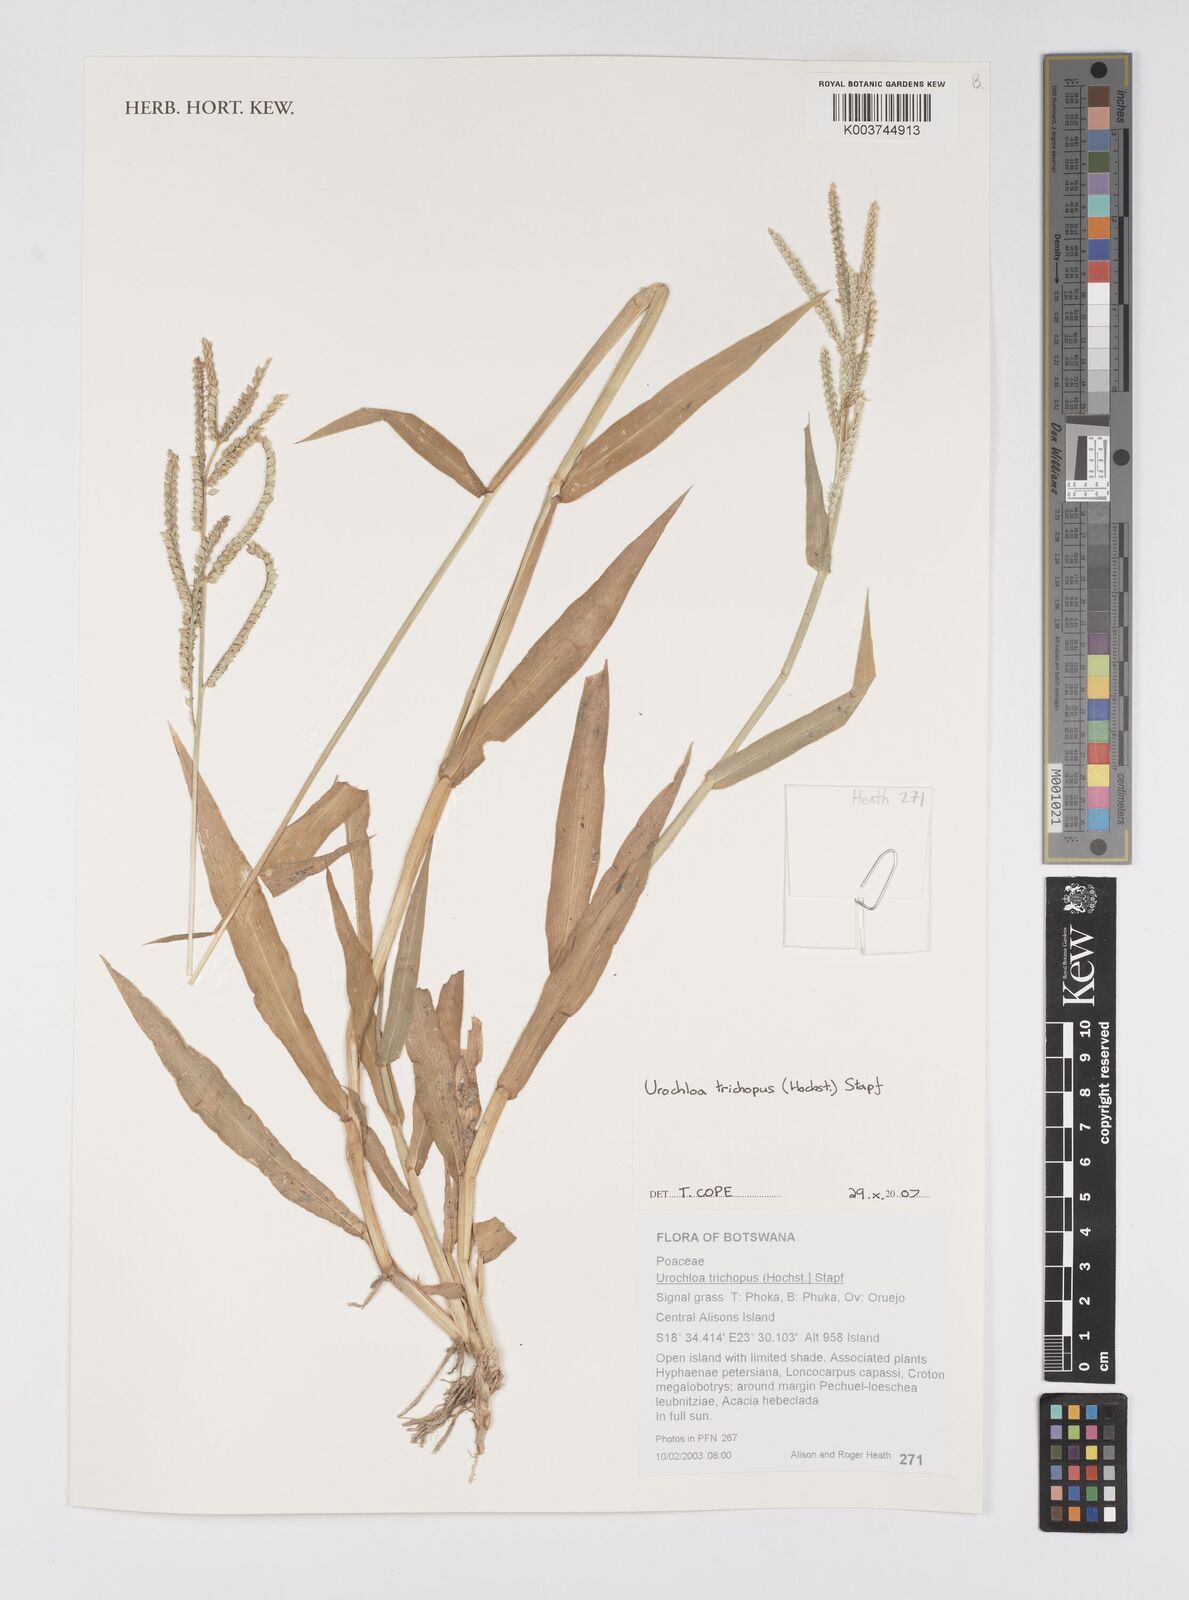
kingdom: Plantae
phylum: Tracheophyta
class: Liliopsida
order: Poales
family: Poaceae
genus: Urochloa
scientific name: Urochloa trichopus
